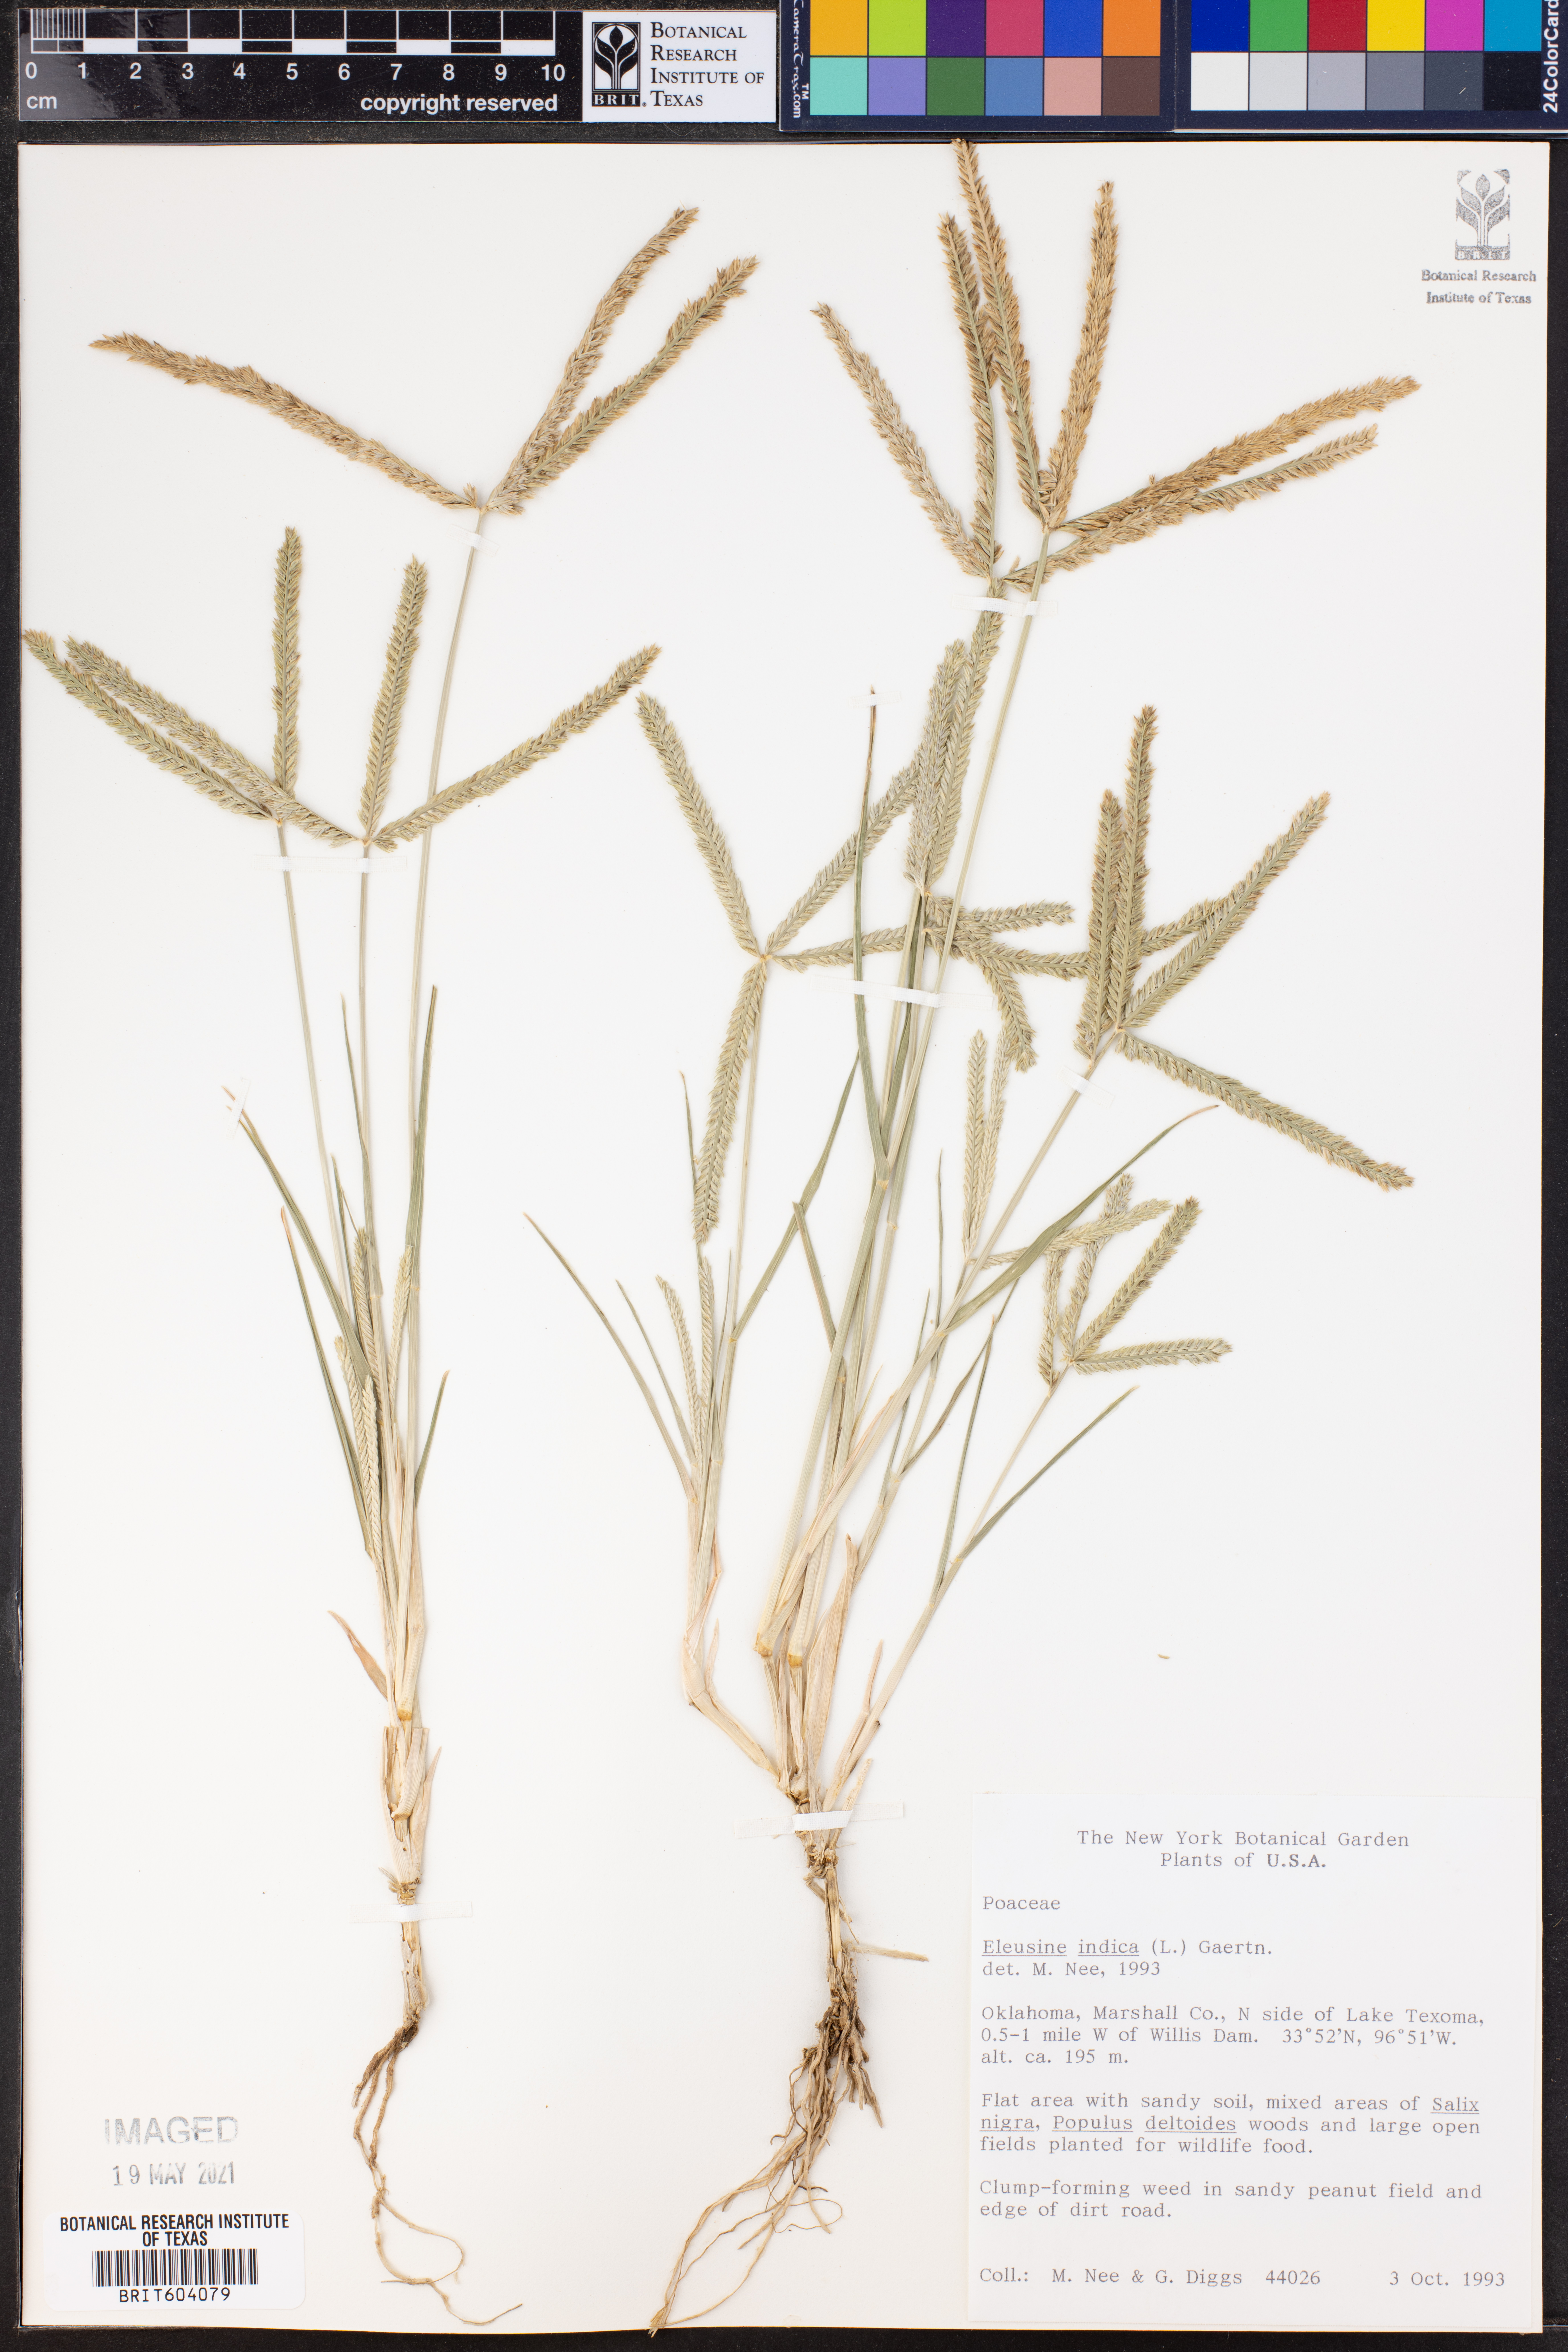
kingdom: Plantae
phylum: Tracheophyta
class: Liliopsida
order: Poales
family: Poaceae
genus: Eleusine
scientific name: Eleusine indica
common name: Yard-grass
